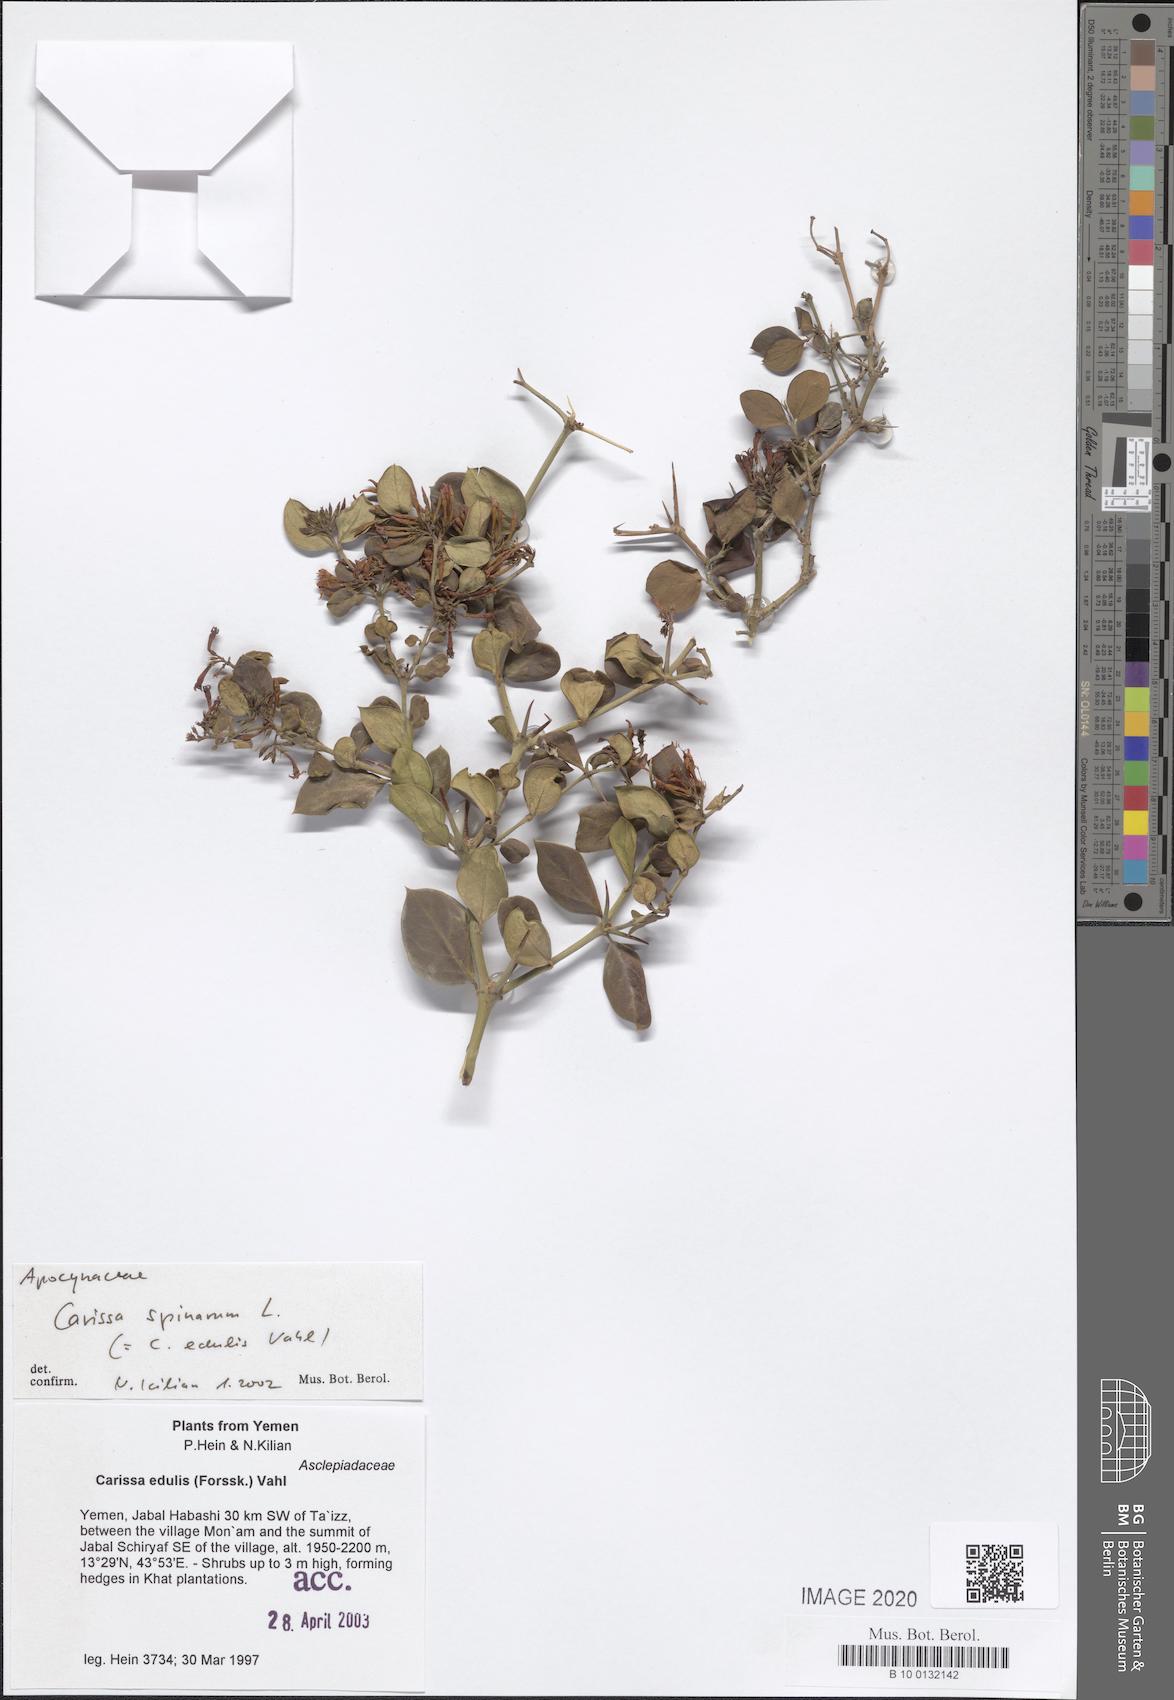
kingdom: Plantae
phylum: Tracheophyta
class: Magnoliopsida
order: Gentianales
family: Apocynaceae
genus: Carissa
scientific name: Carissa spinarum
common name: Egyptian carissa
